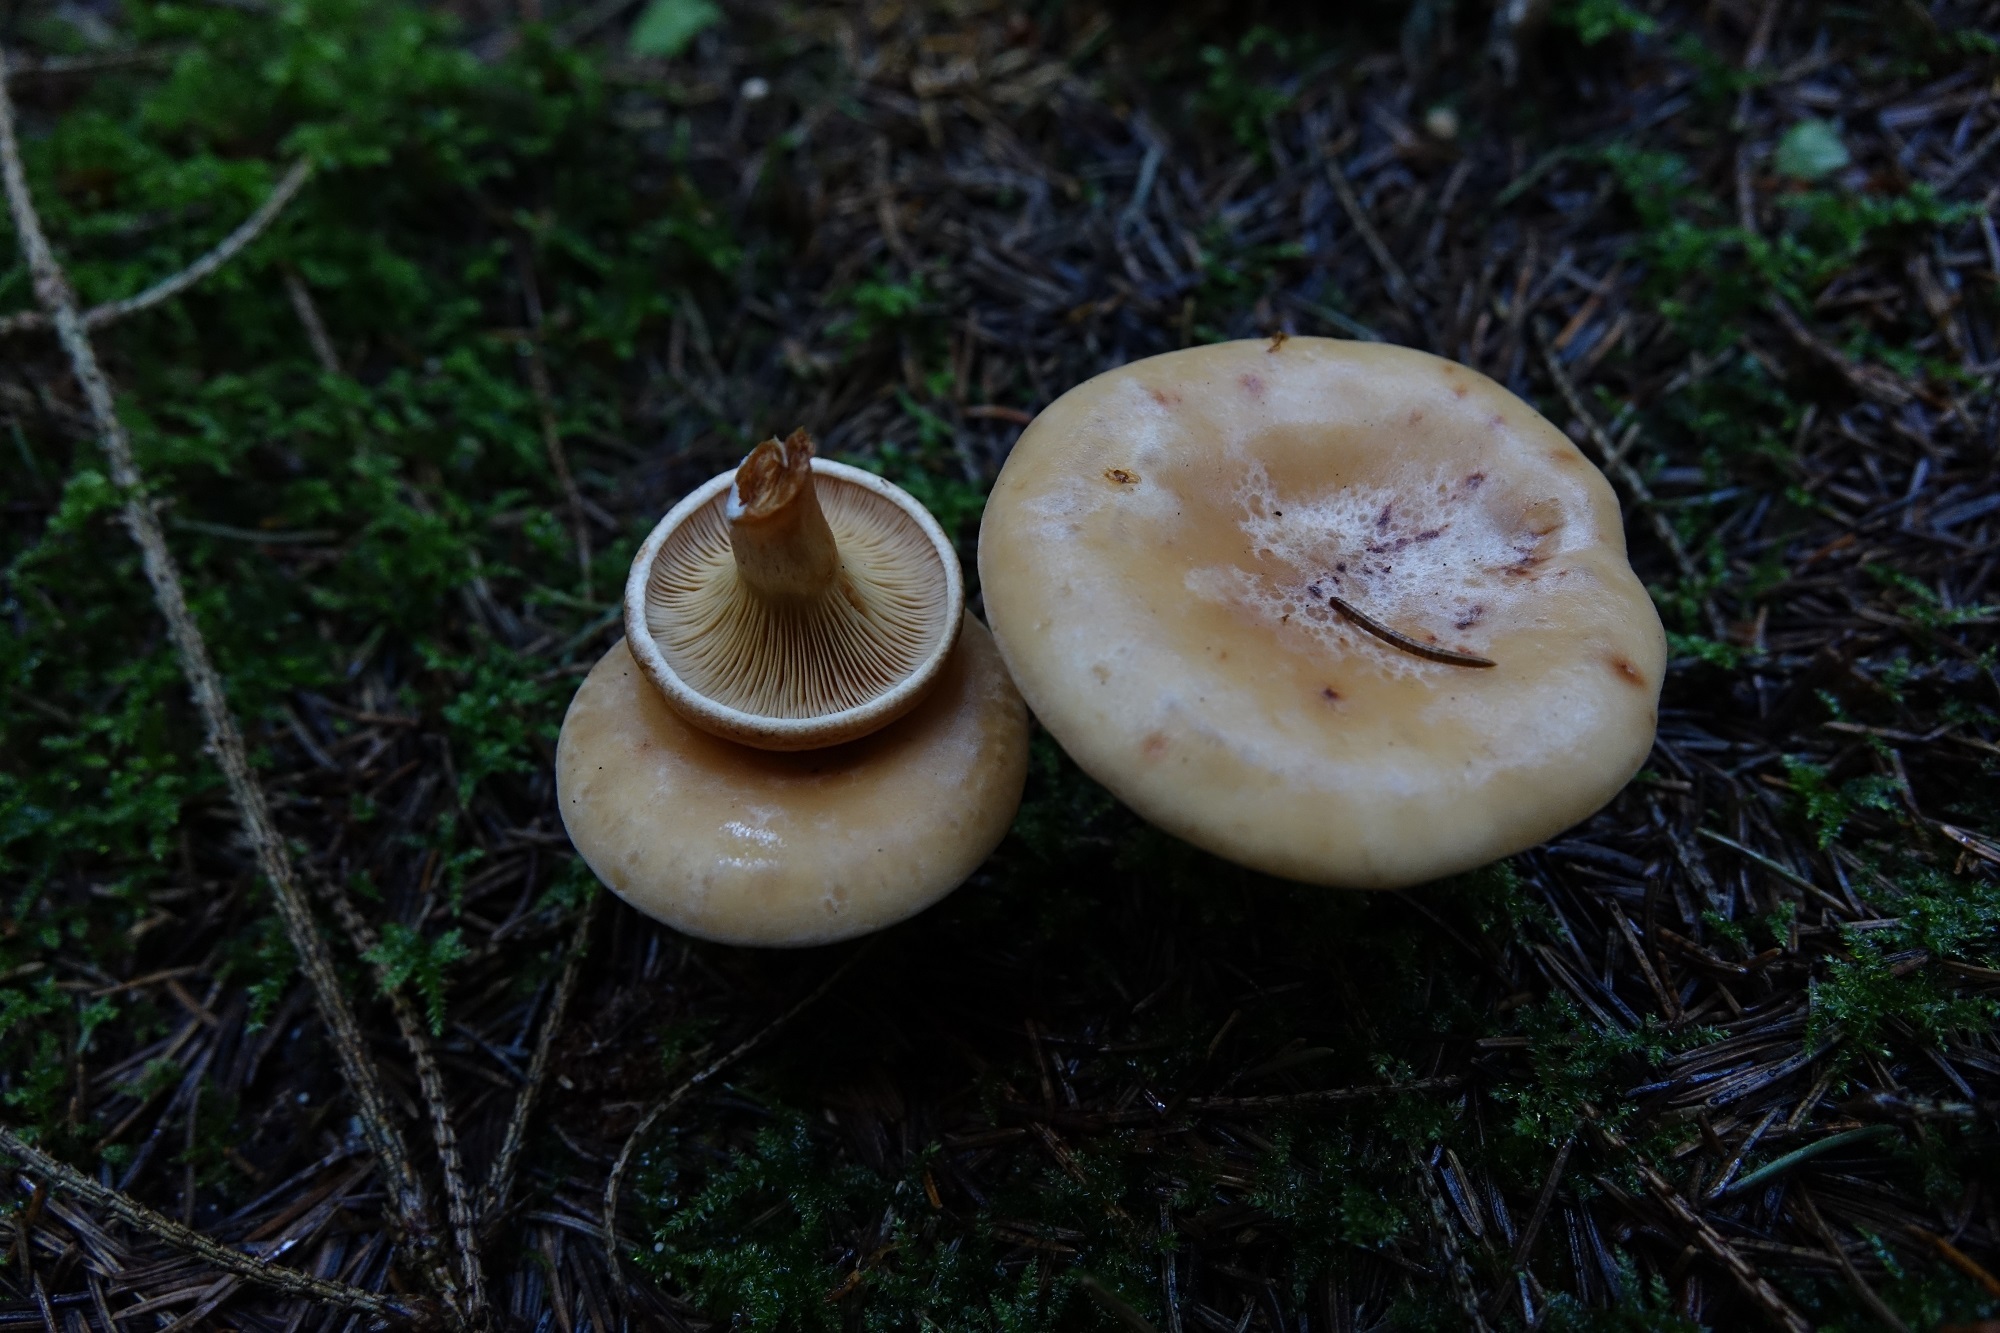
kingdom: Fungi
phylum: Basidiomycota
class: Agaricomycetes
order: Agaricales
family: Tricholomataceae
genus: Paralepista
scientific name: Paralepista gilva
